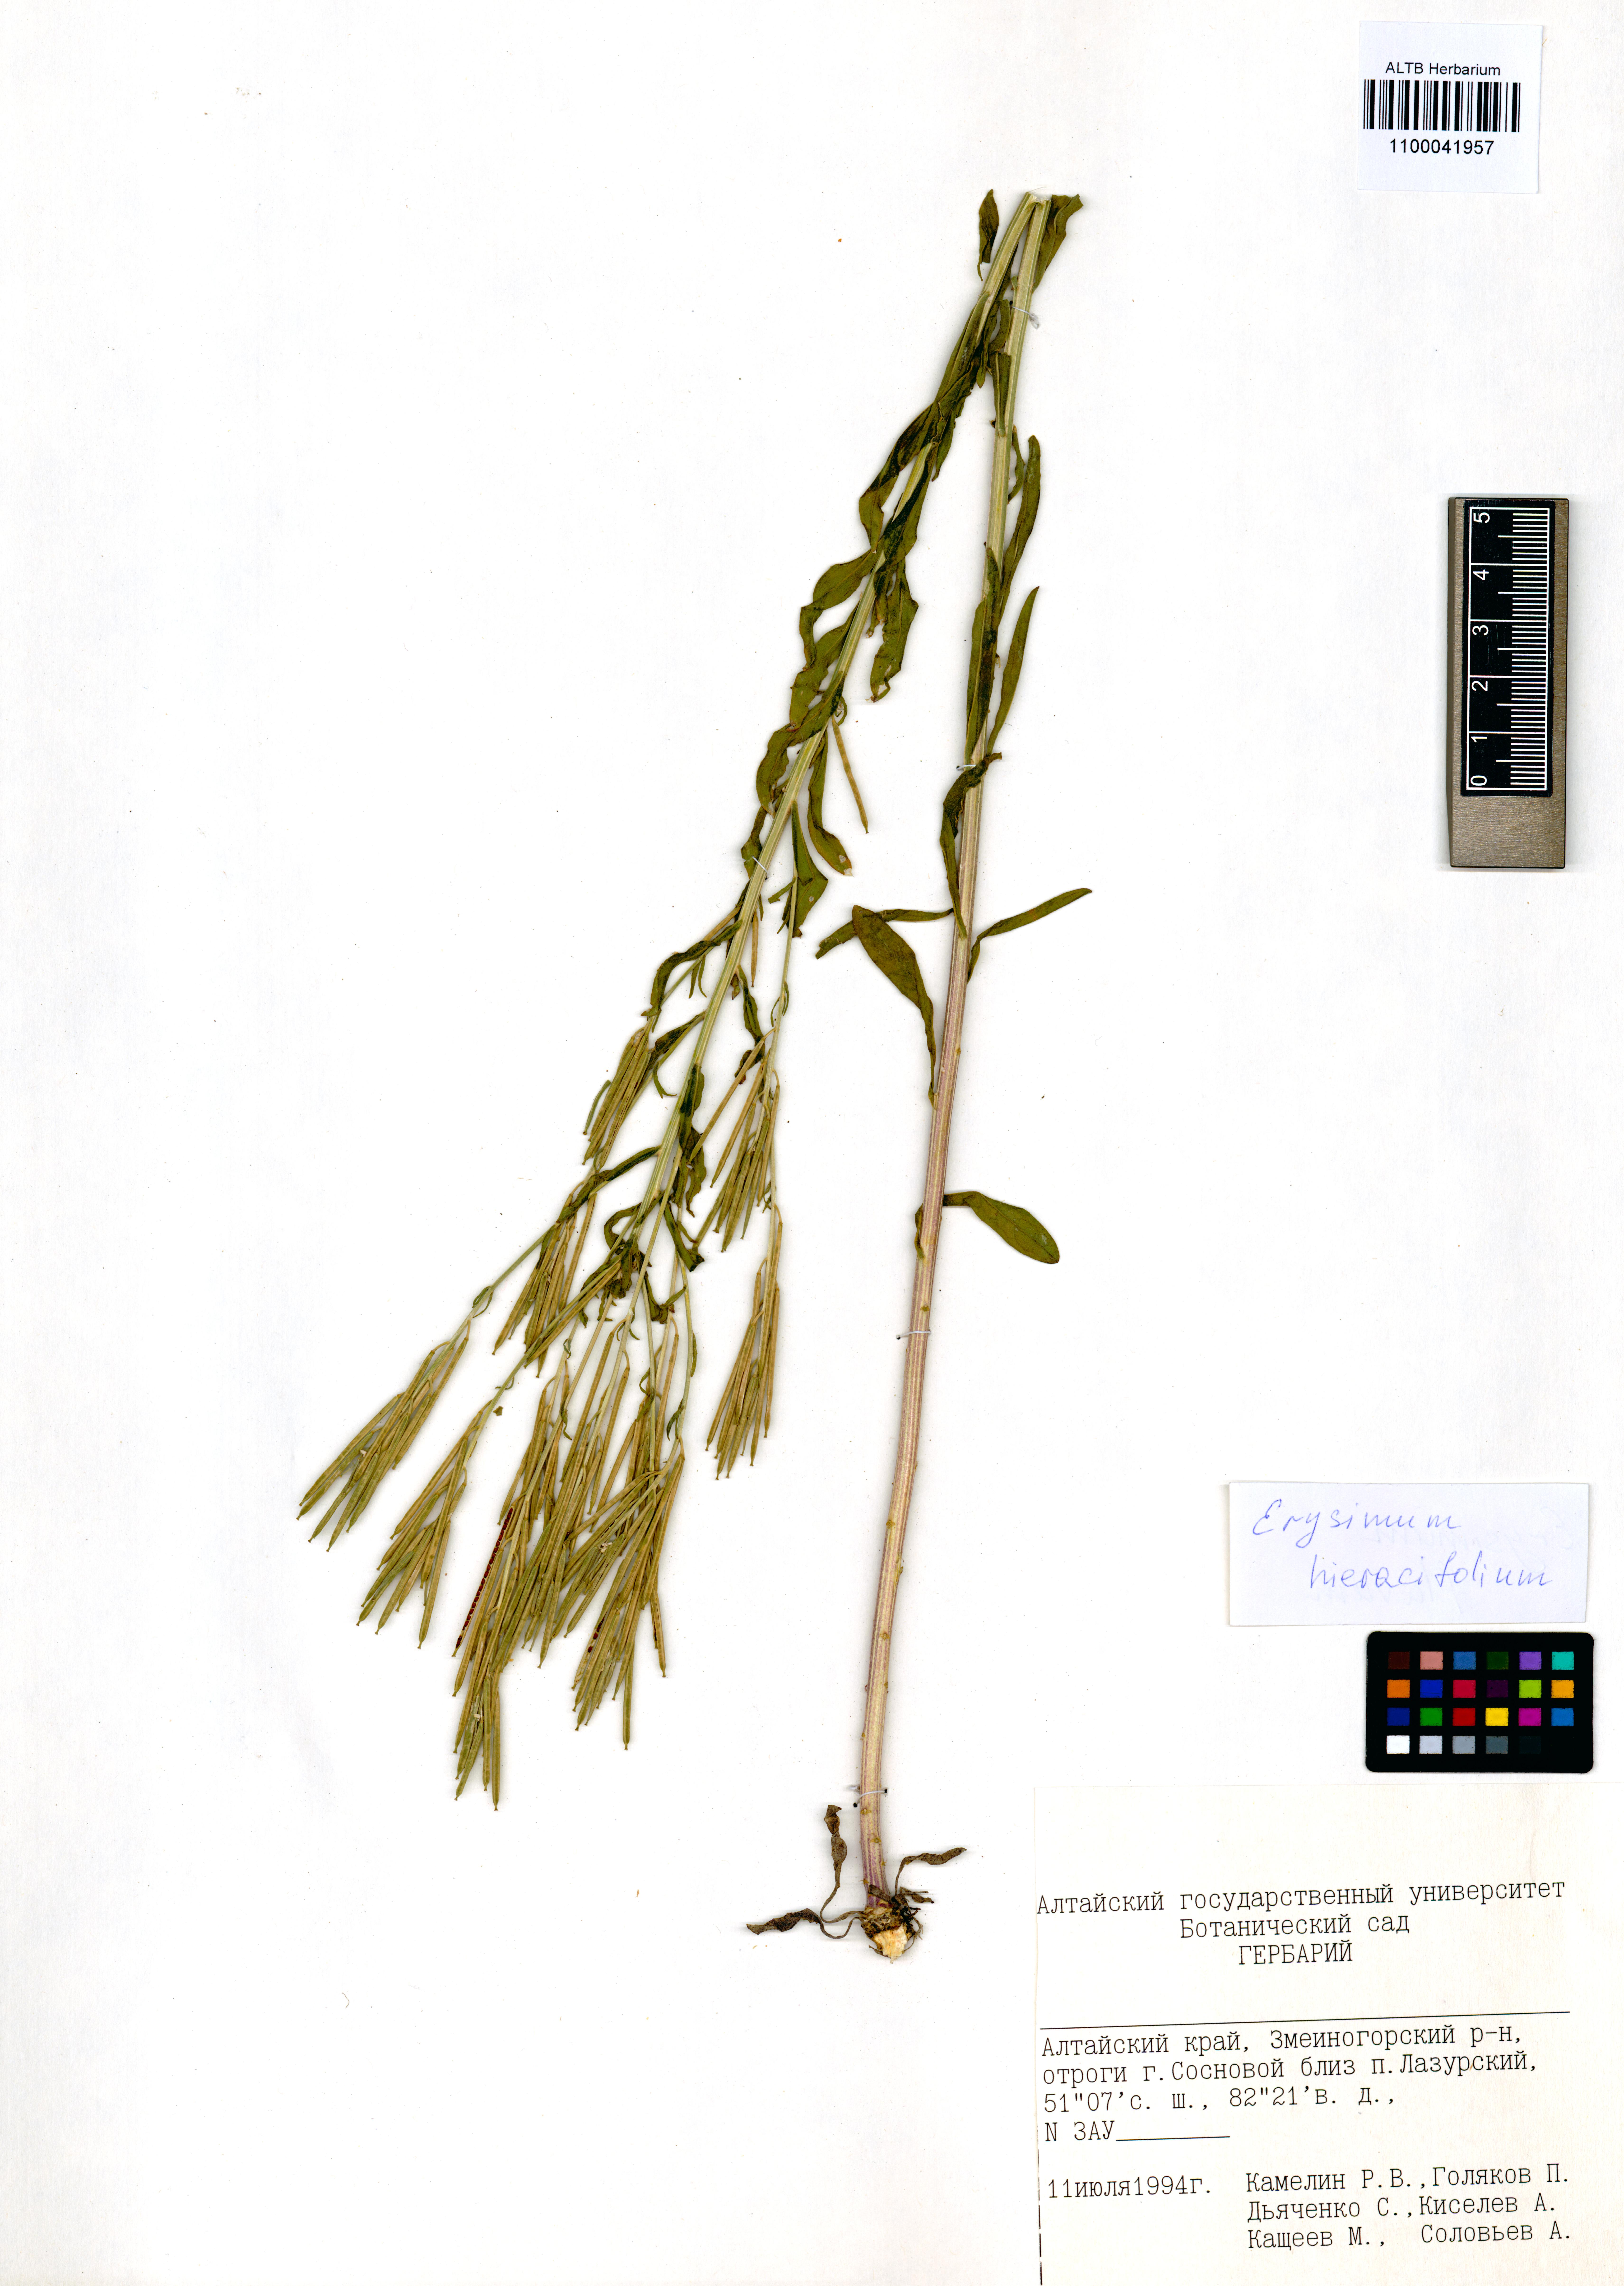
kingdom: Plantae
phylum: Tracheophyta
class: Magnoliopsida
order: Brassicales
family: Brassicaceae
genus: Erysimum
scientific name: Erysimum hieraciifolium
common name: European wallflower
